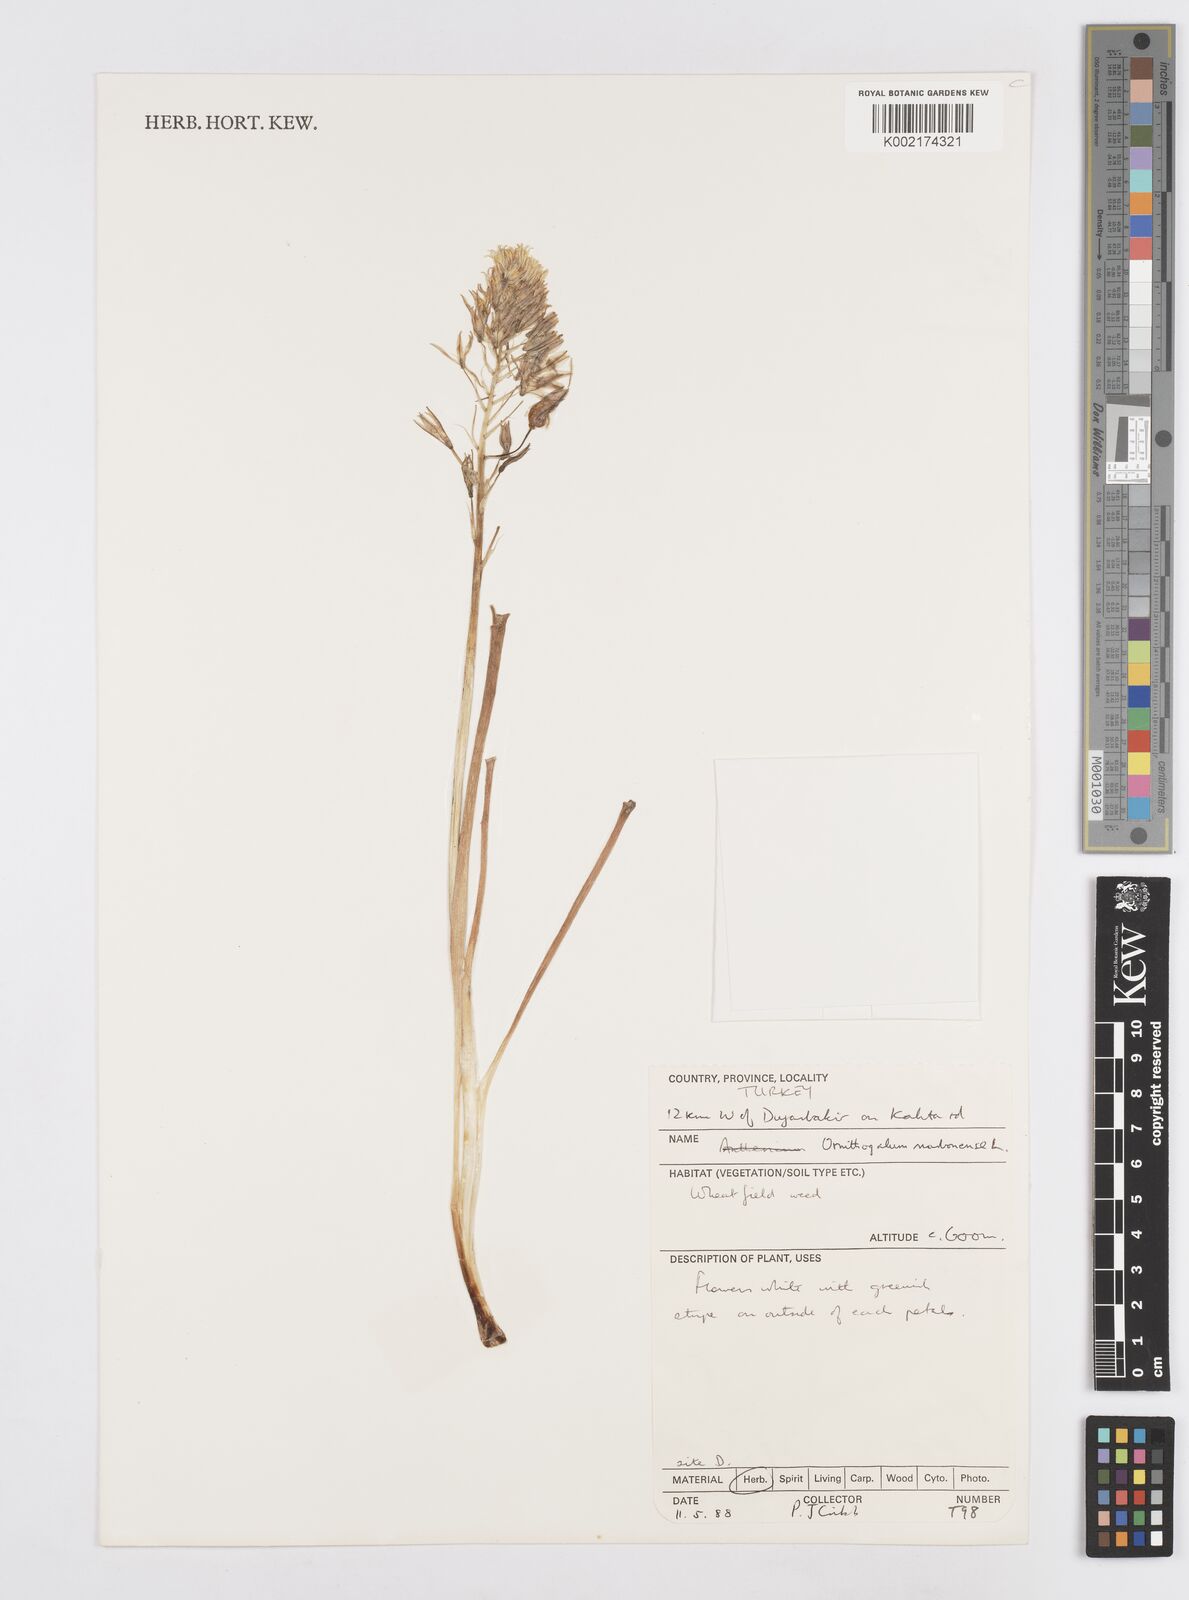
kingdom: Plantae
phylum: Tracheophyta
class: Liliopsida
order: Asparagales
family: Asparagaceae
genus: Ornithogalum
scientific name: Ornithogalum narbonense
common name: Bath-asparagus
